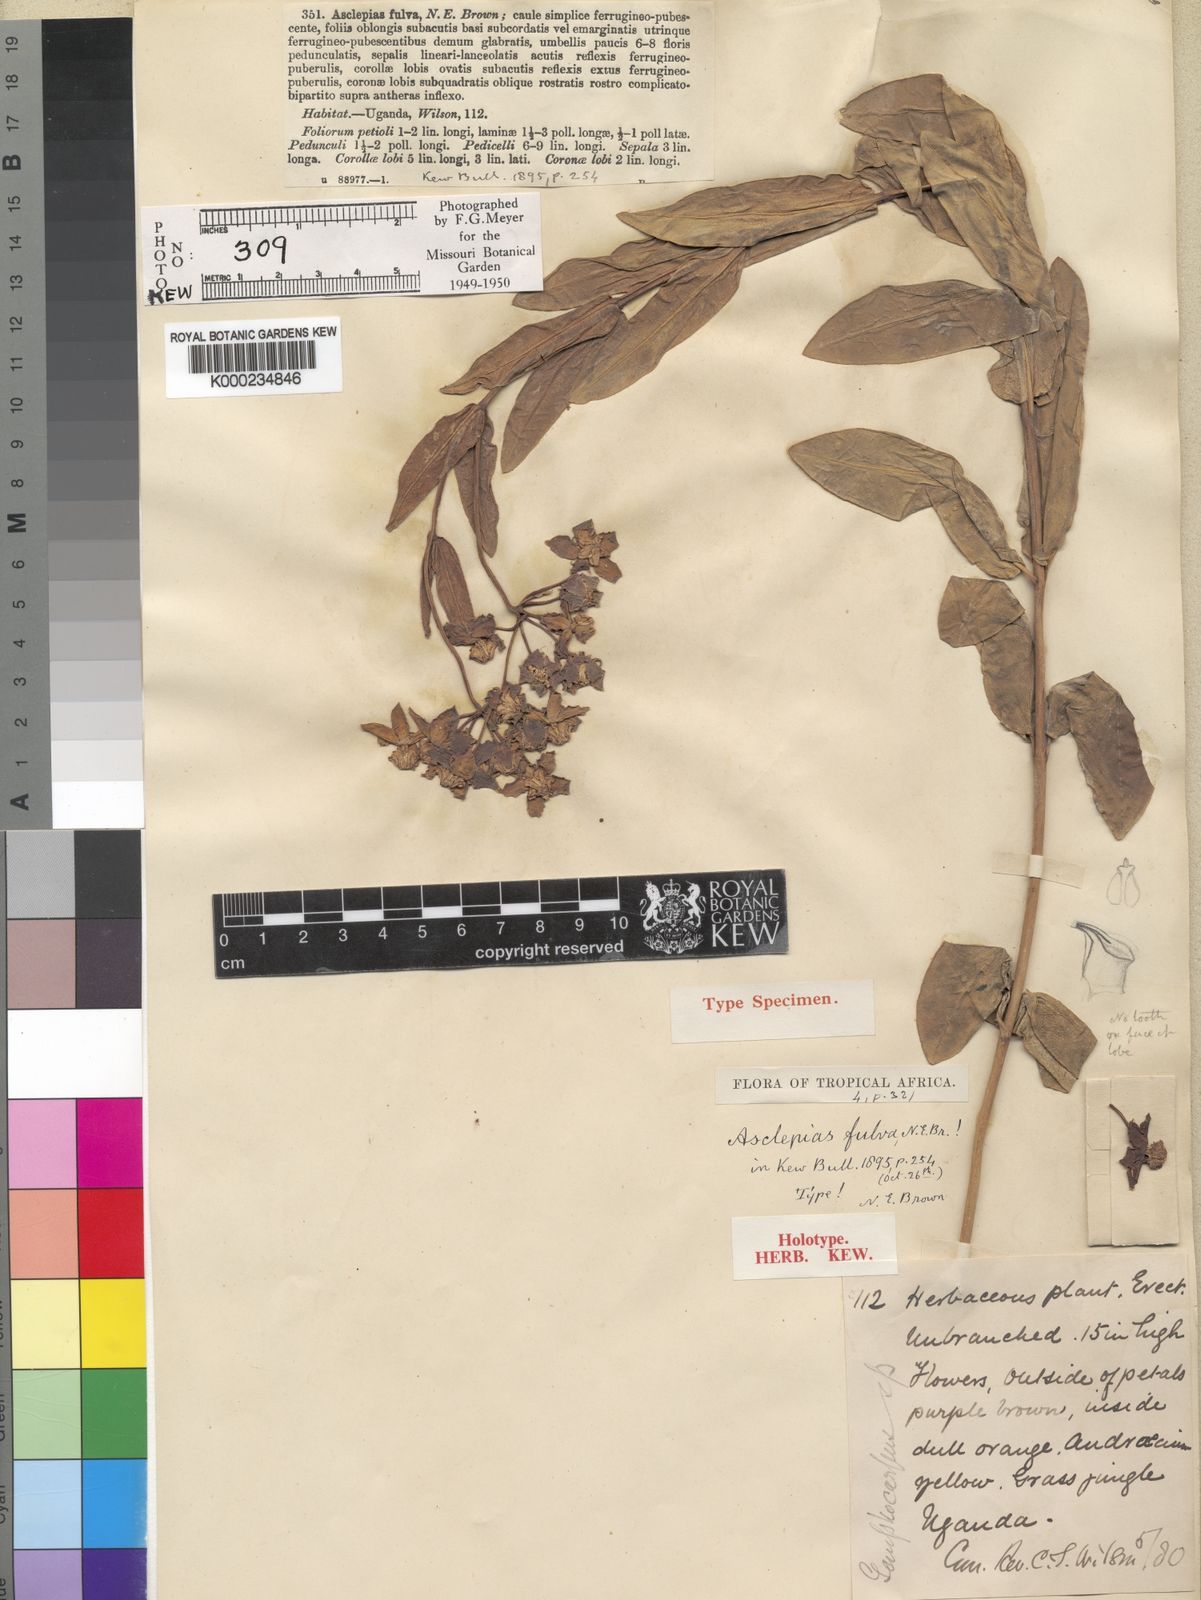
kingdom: Plantae
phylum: Tracheophyta
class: Magnoliopsida
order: Gentianales
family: Apocynaceae
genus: Asclepias
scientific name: Asclepias fulva
